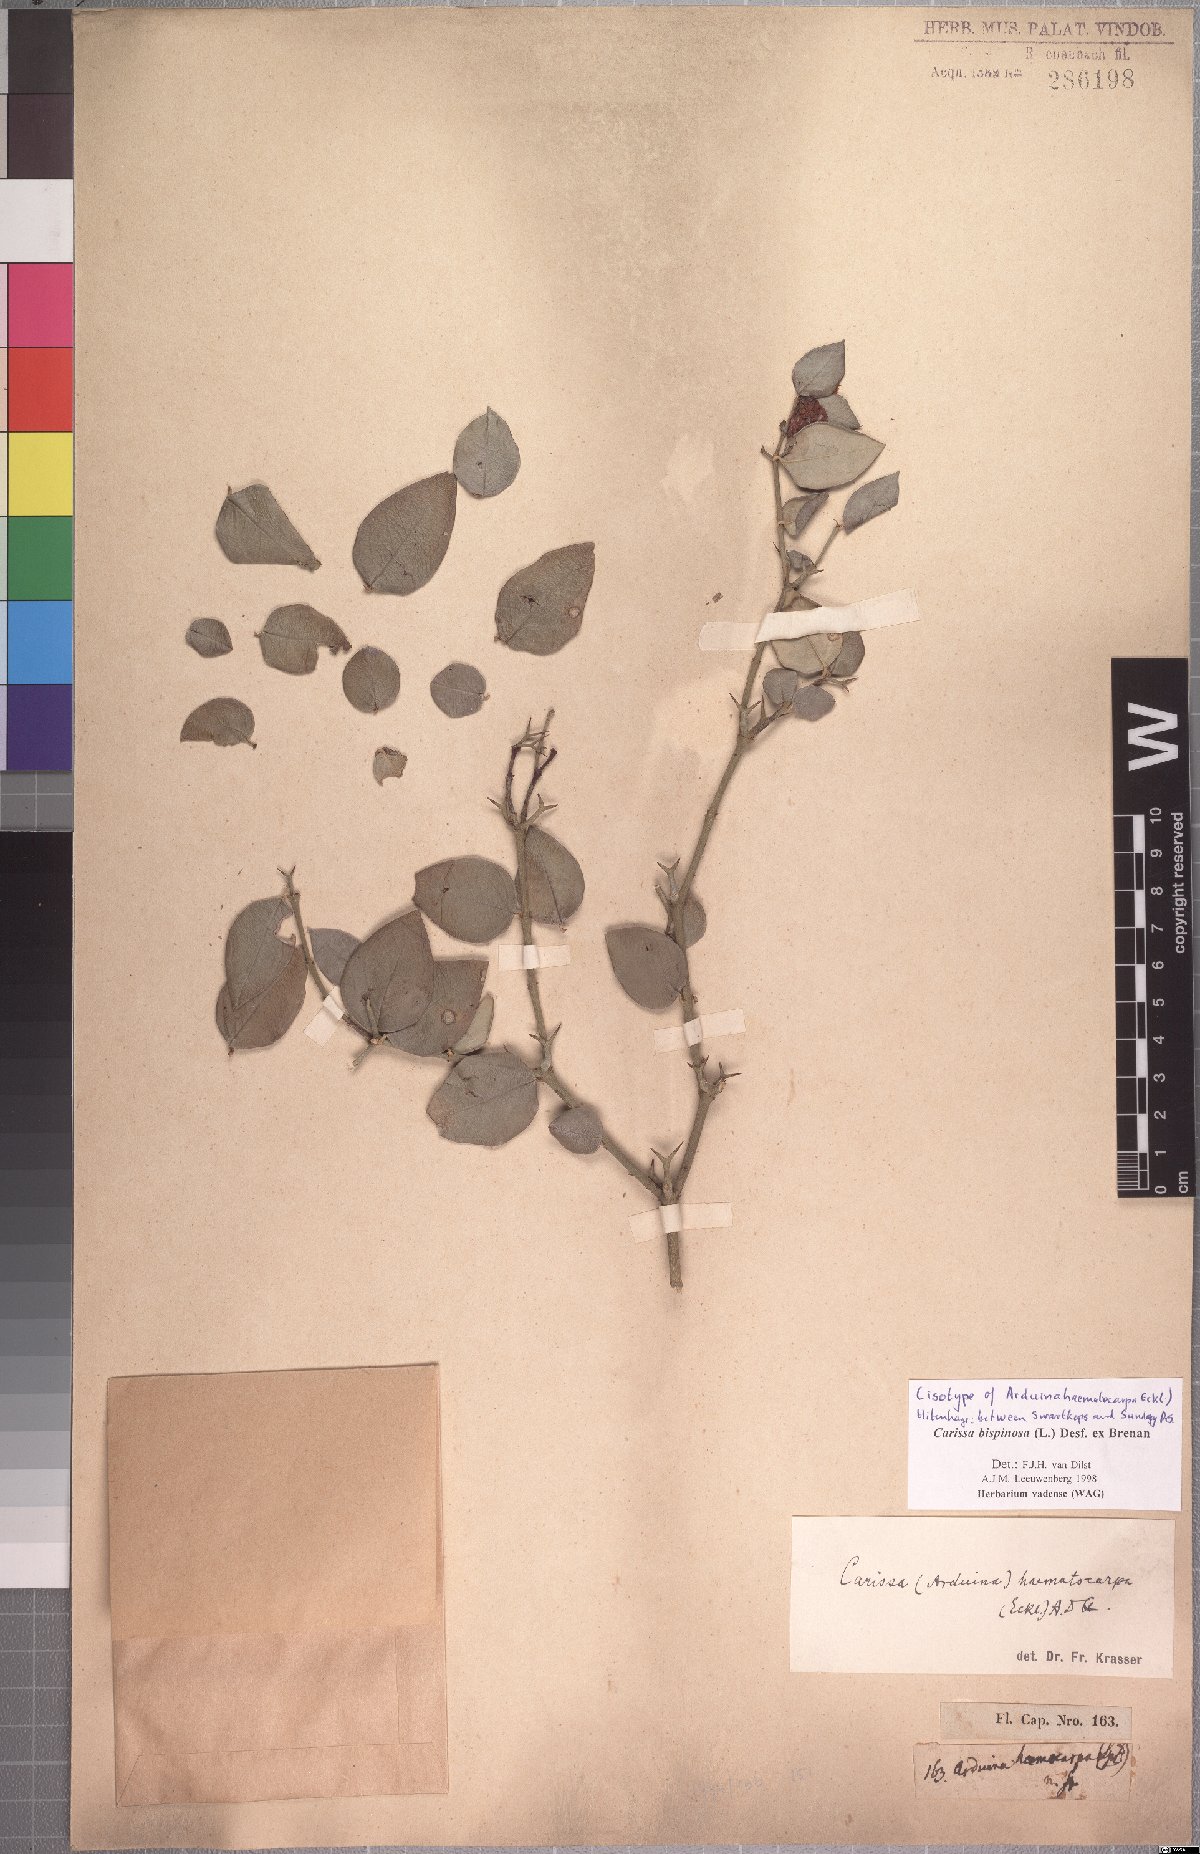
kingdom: Plantae
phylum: Tracheophyta
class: Magnoliopsida
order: Gentianales
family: Apocynaceae
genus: Carissa
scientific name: Carissa bispinosa
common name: Forest num-num
